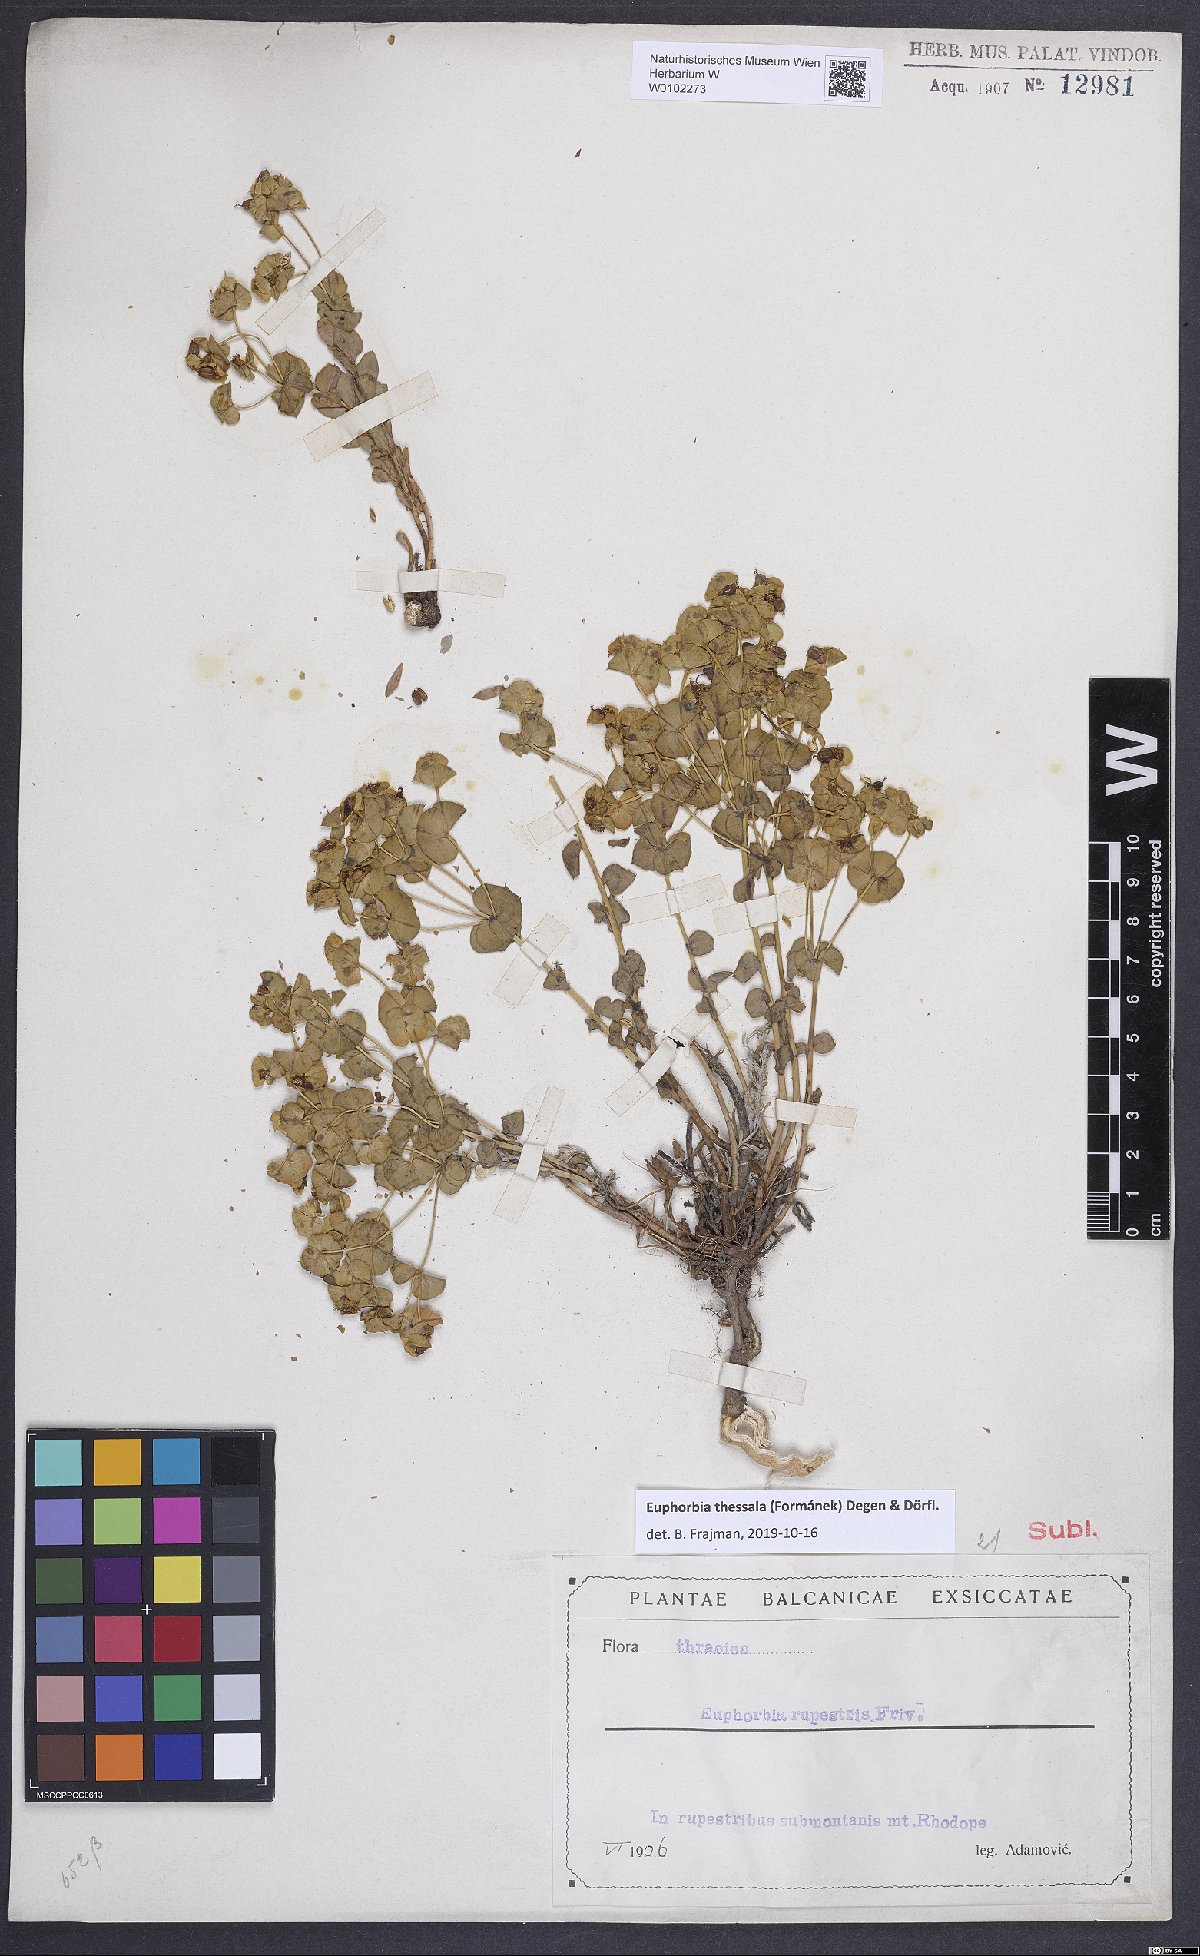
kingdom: Plantae
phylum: Tracheophyta
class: Magnoliopsida
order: Malpighiales
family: Euphorbiaceae
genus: Euphorbia
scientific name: Euphorbia barrelieri
